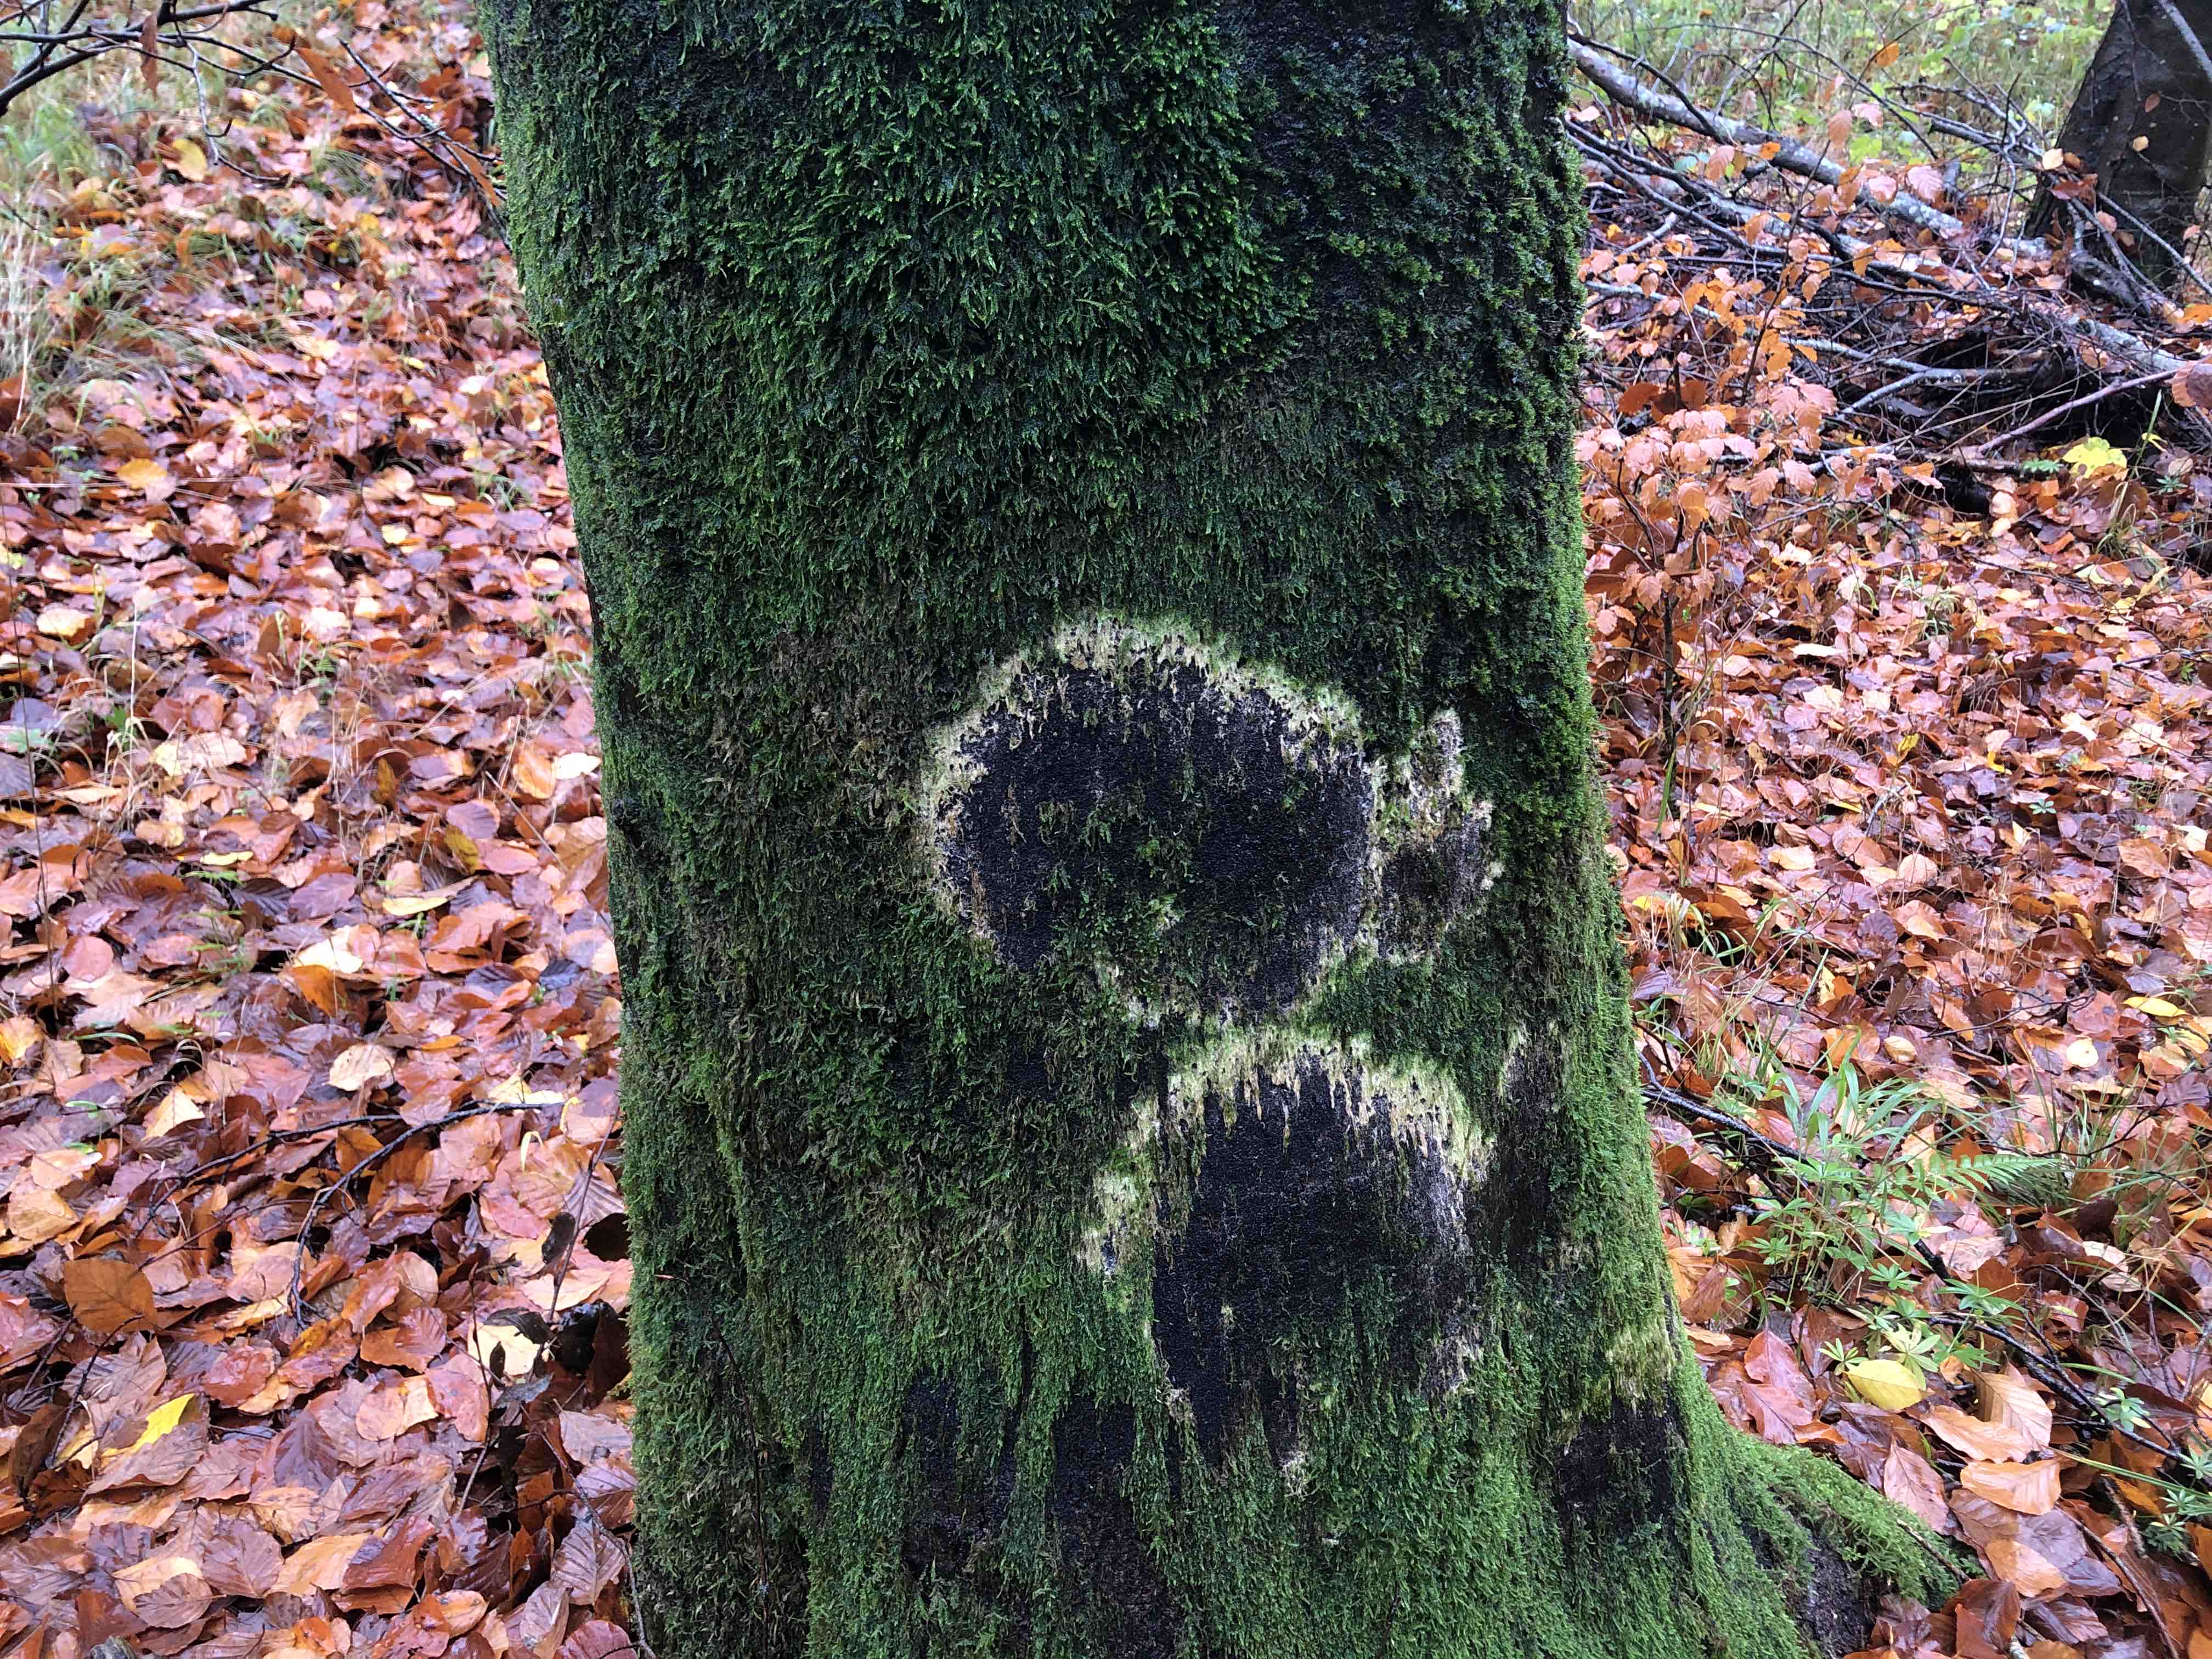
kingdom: Fungi
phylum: Basidiomycota
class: Agaricomycetes
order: Agaricales
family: Chromocyphellaceae
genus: Chromocyphella
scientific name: Chromocyphella muscicola
